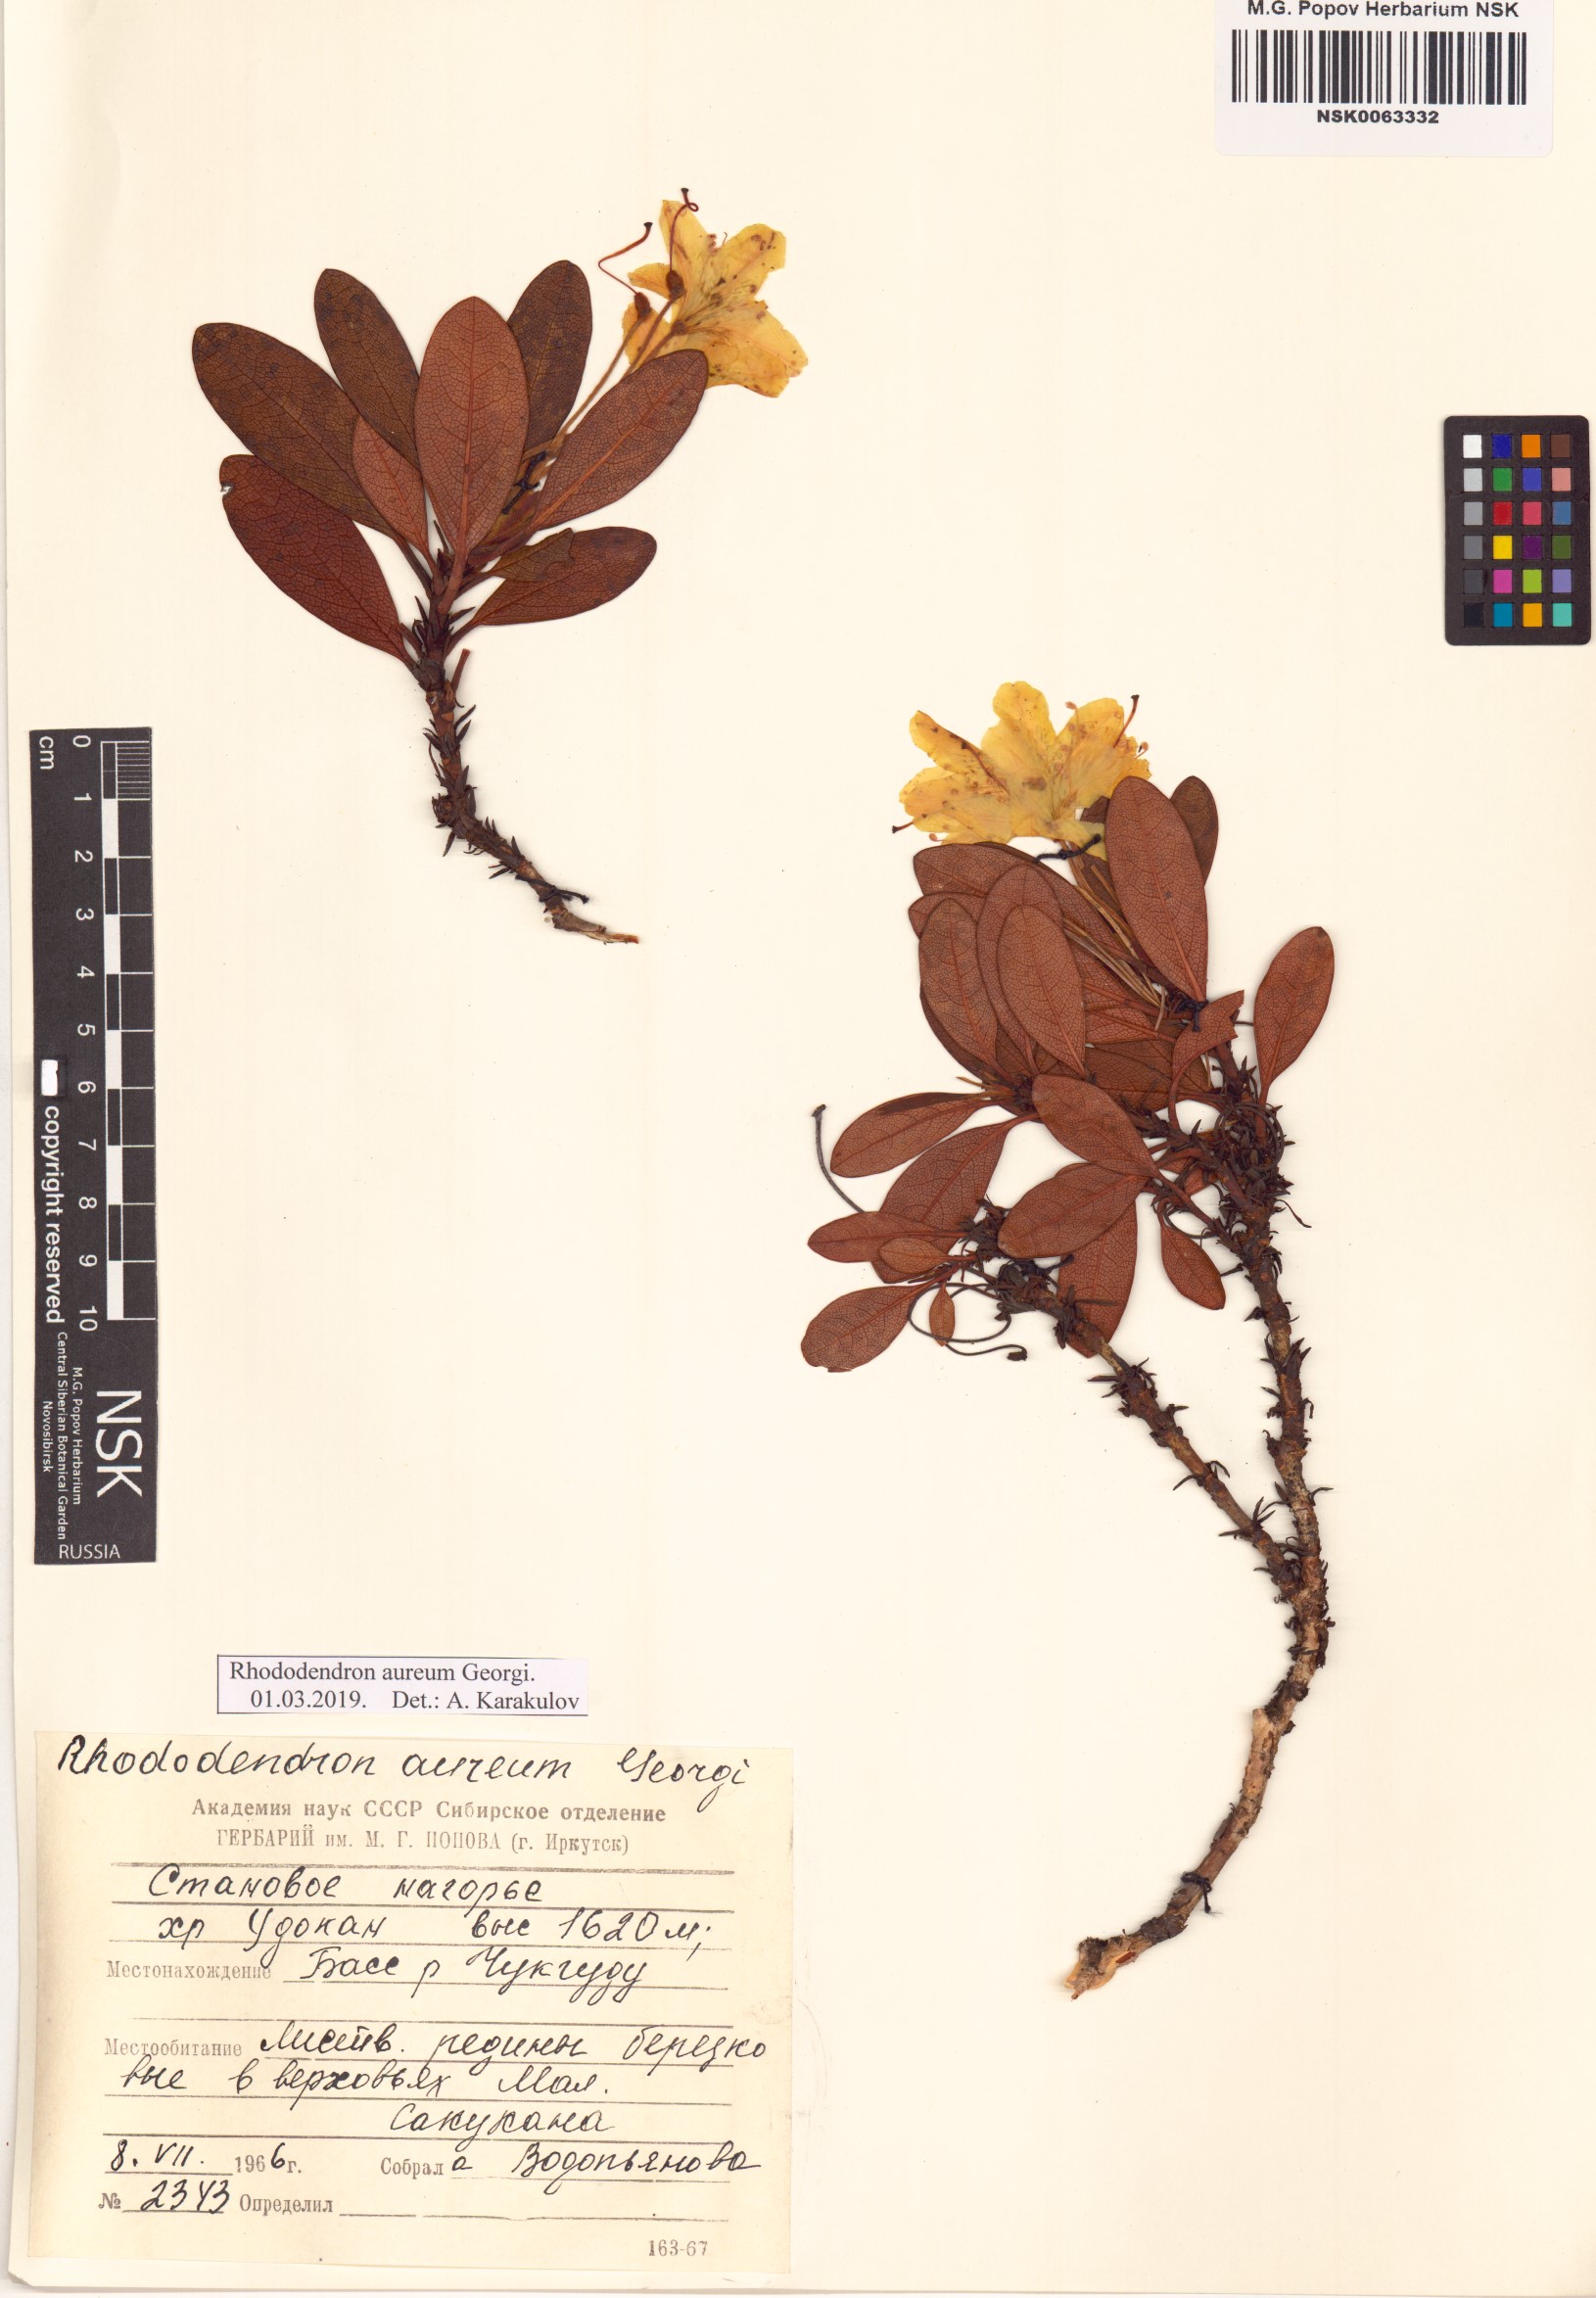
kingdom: Plantae
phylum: Tracheophyta
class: Magnoliopsida
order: Ericales
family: Ericaceae
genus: Rhododendron
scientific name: Rhododendron aureum
